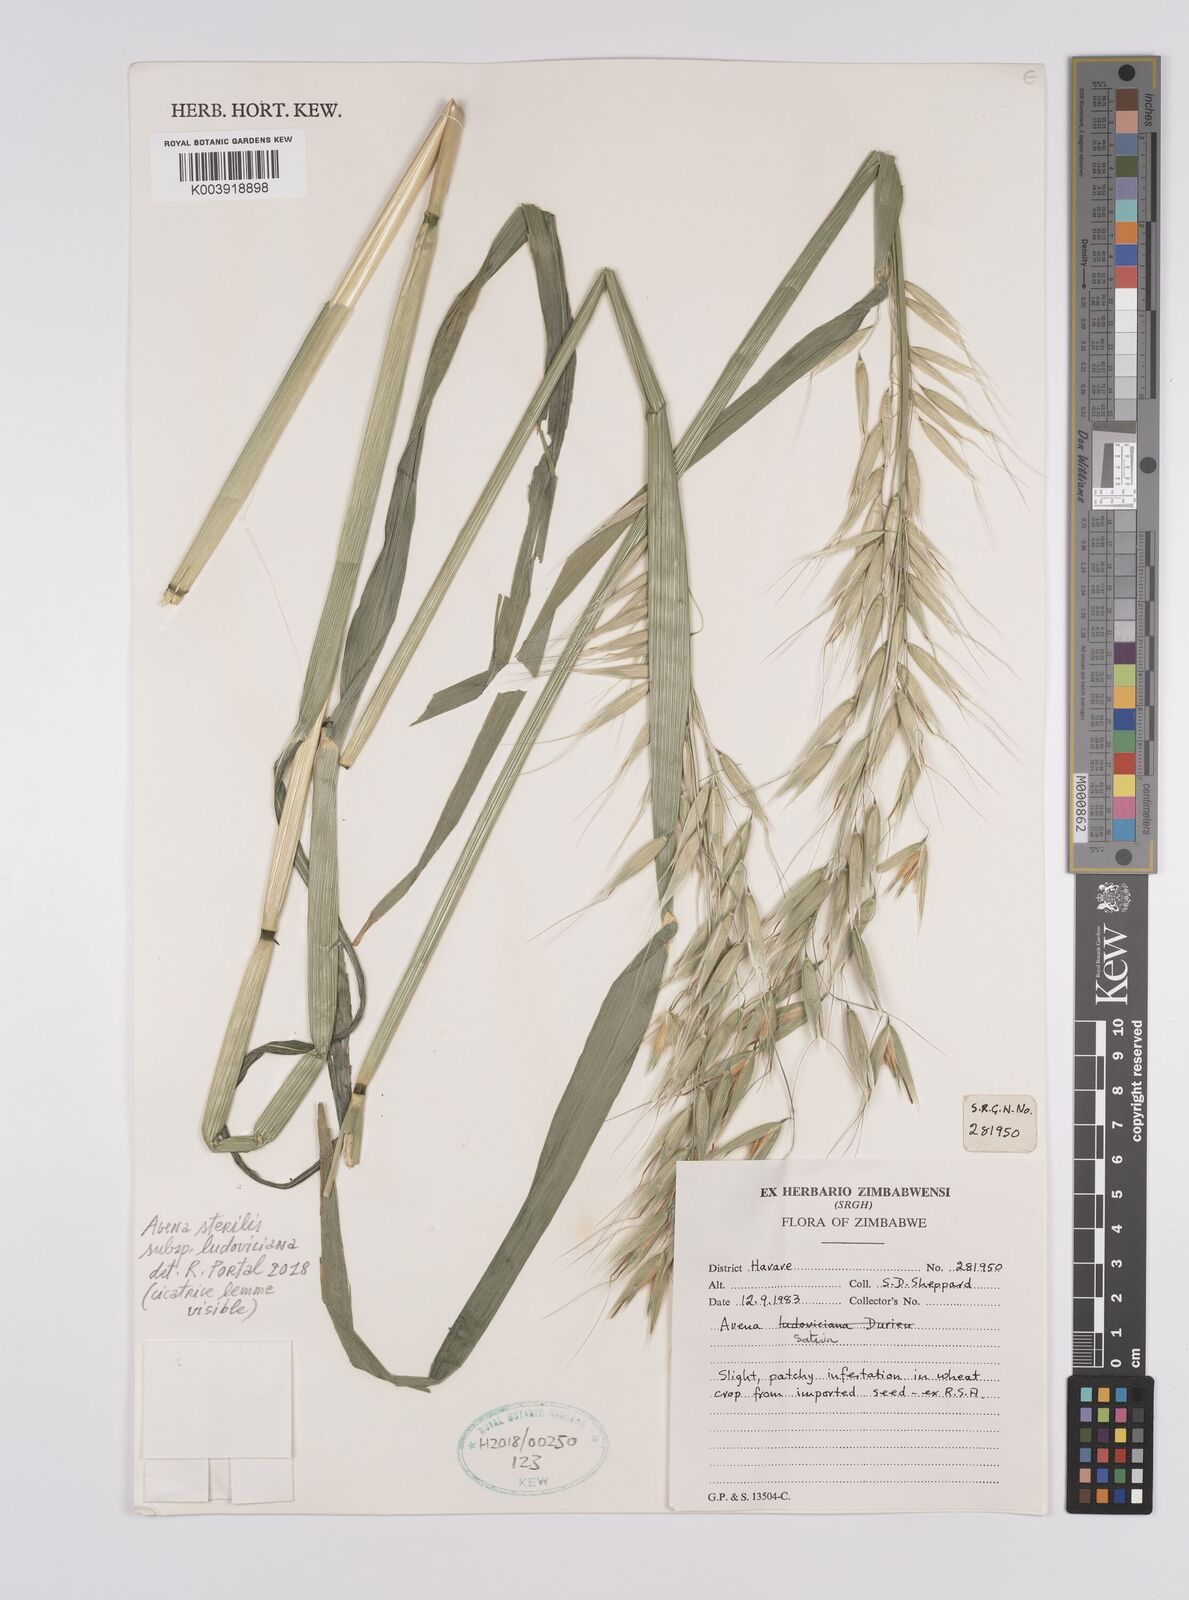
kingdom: Plantae
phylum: Tracheophyta
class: Liliopsida
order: Poales
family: Poaceae
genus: Avena
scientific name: Avena sterilis
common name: Animated oat
